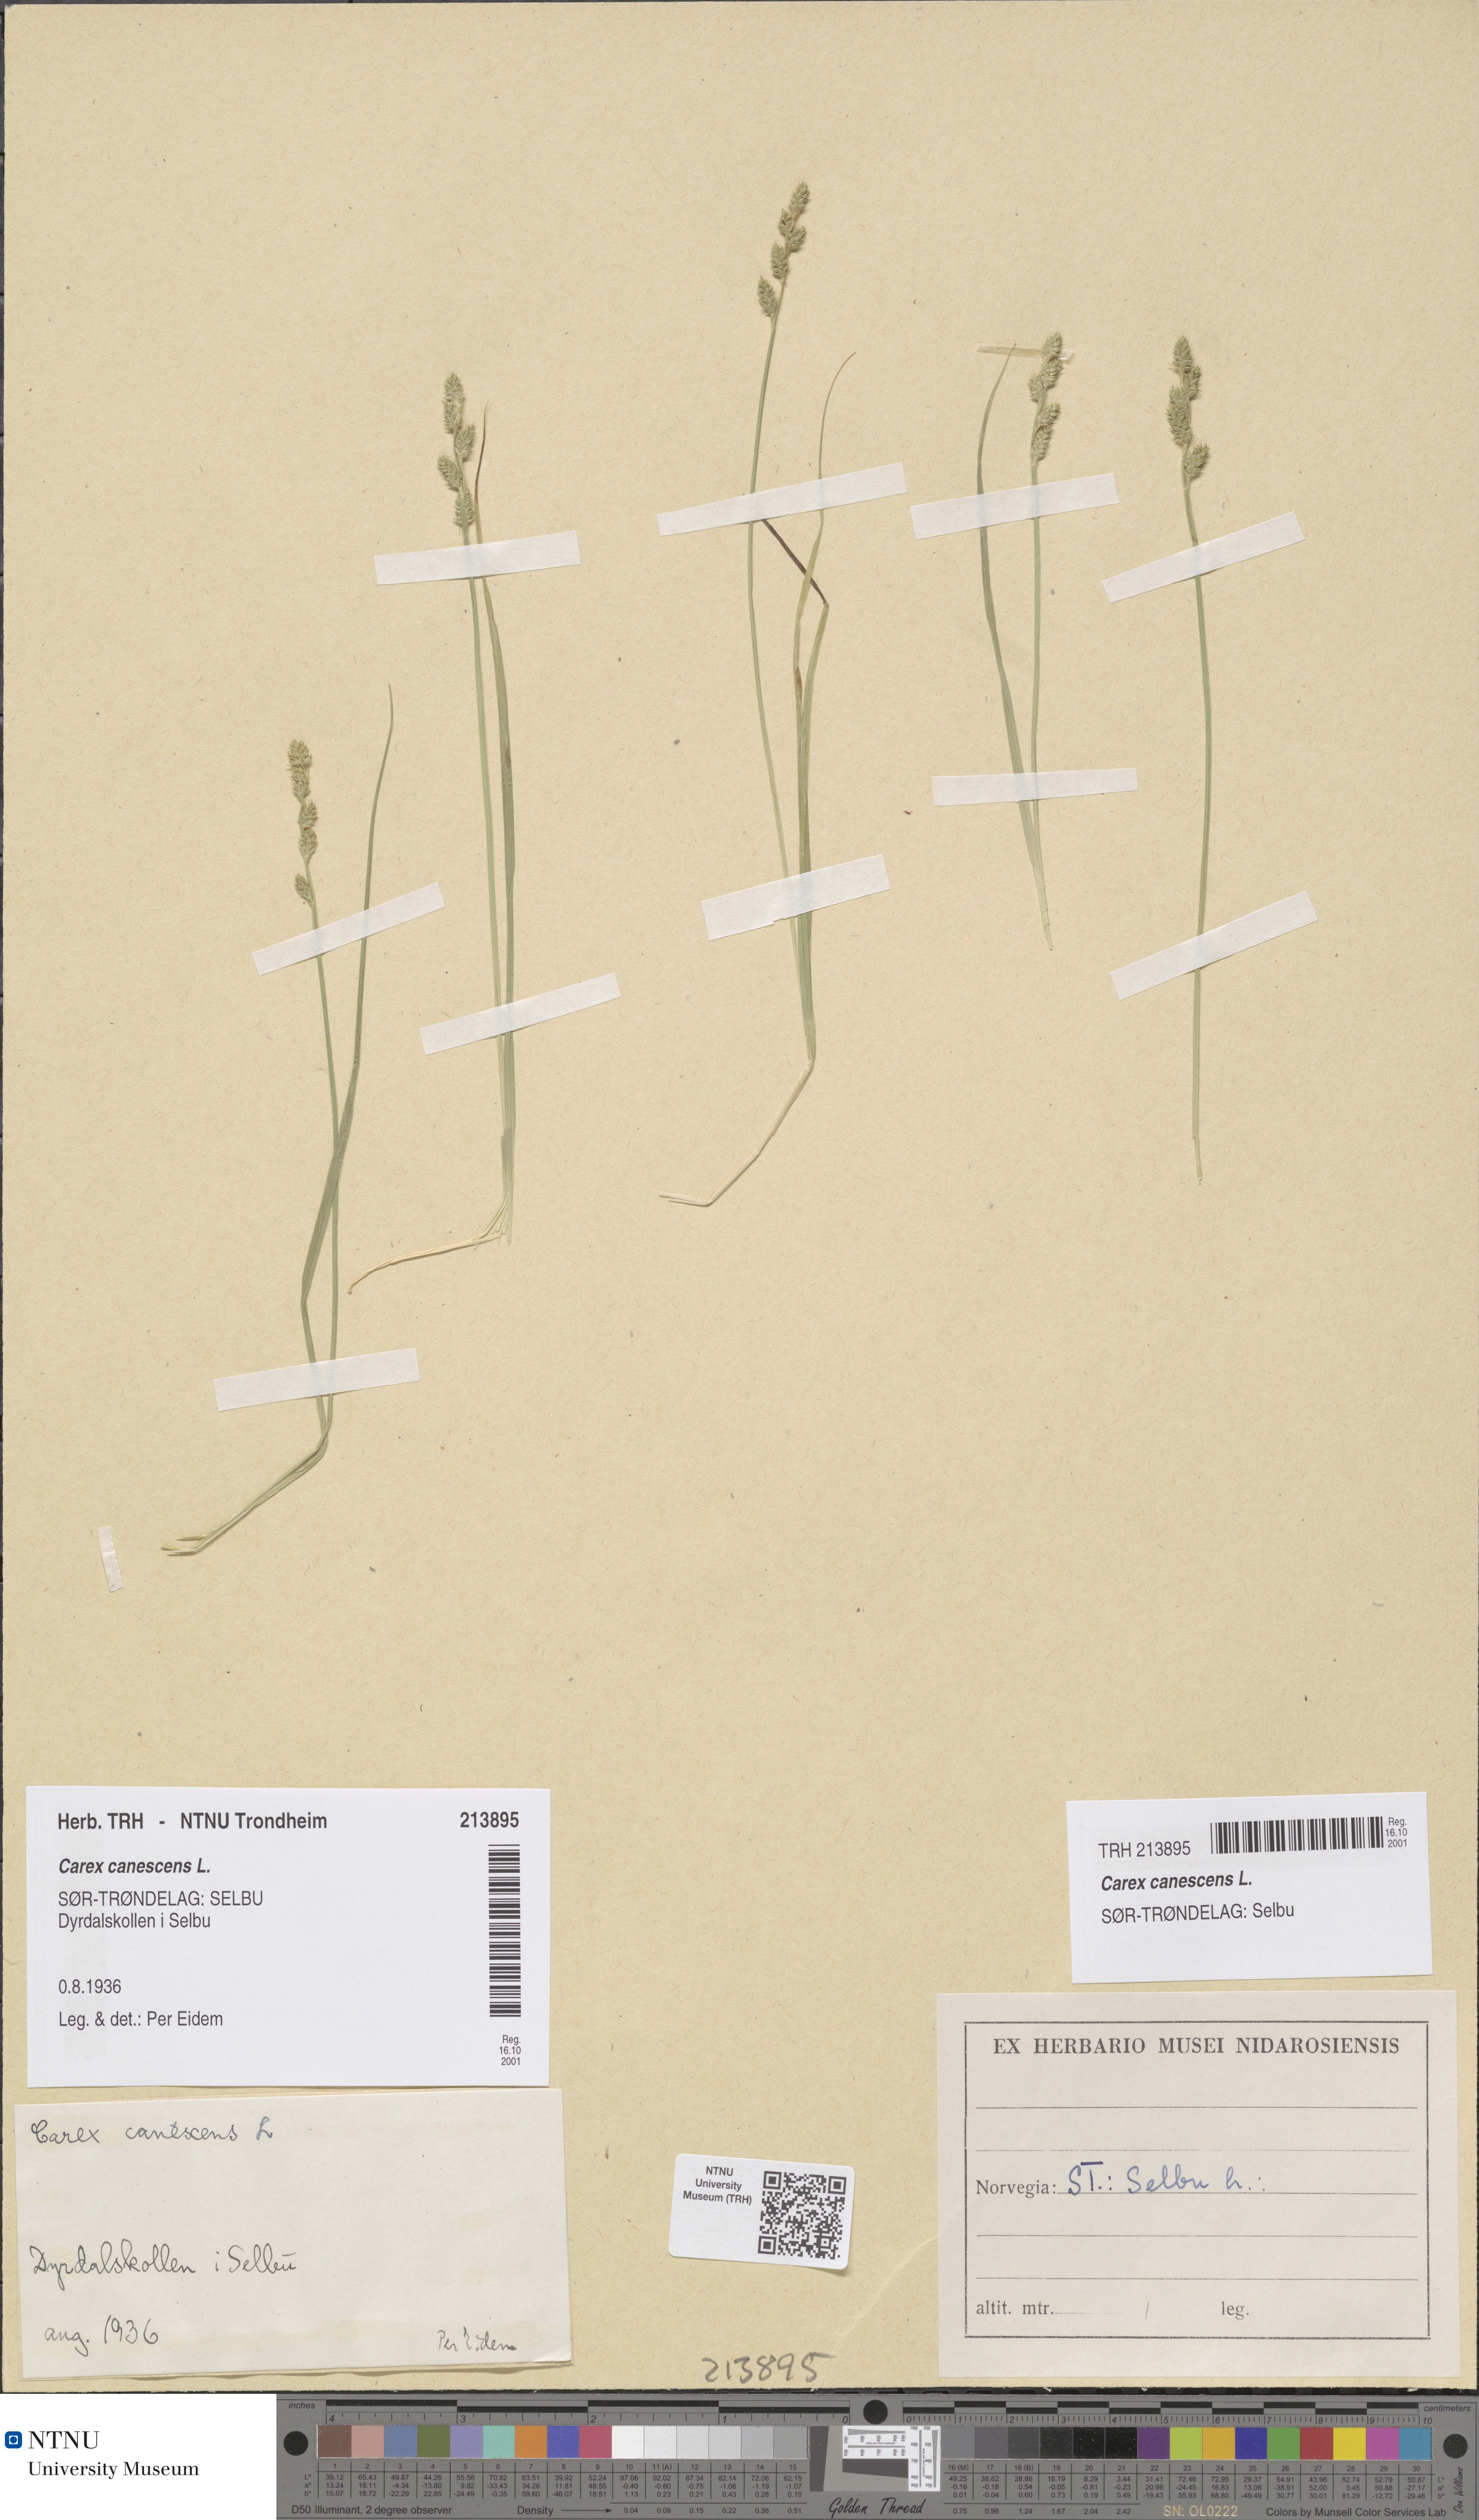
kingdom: Plantae
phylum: Tracheophyta
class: Liliopsida
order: Poales
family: Cyperaceae
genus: Carex
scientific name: Carex canescens
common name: White sedge
